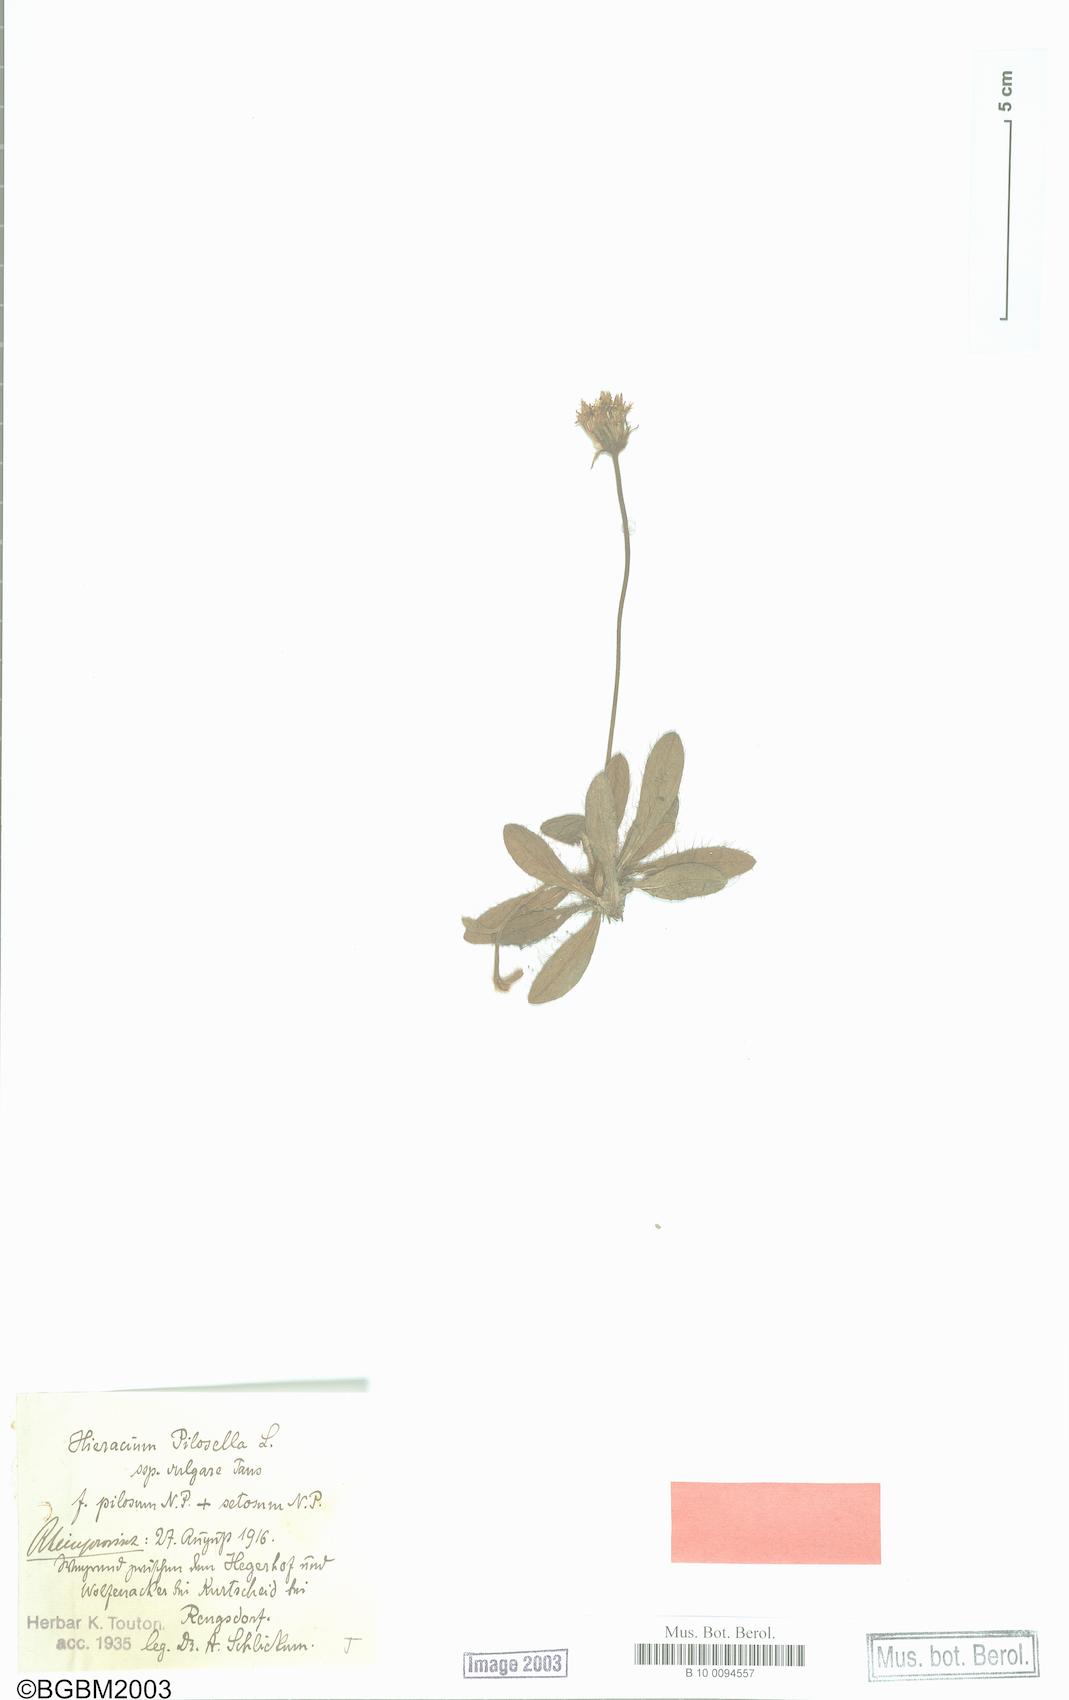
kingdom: Plantae
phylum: Tracheophyta
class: Magnoliopsida
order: Asterales
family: Asteraceae
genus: Pilosella
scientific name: Pilosella officinarum
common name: Mouse-ear hawkweed
